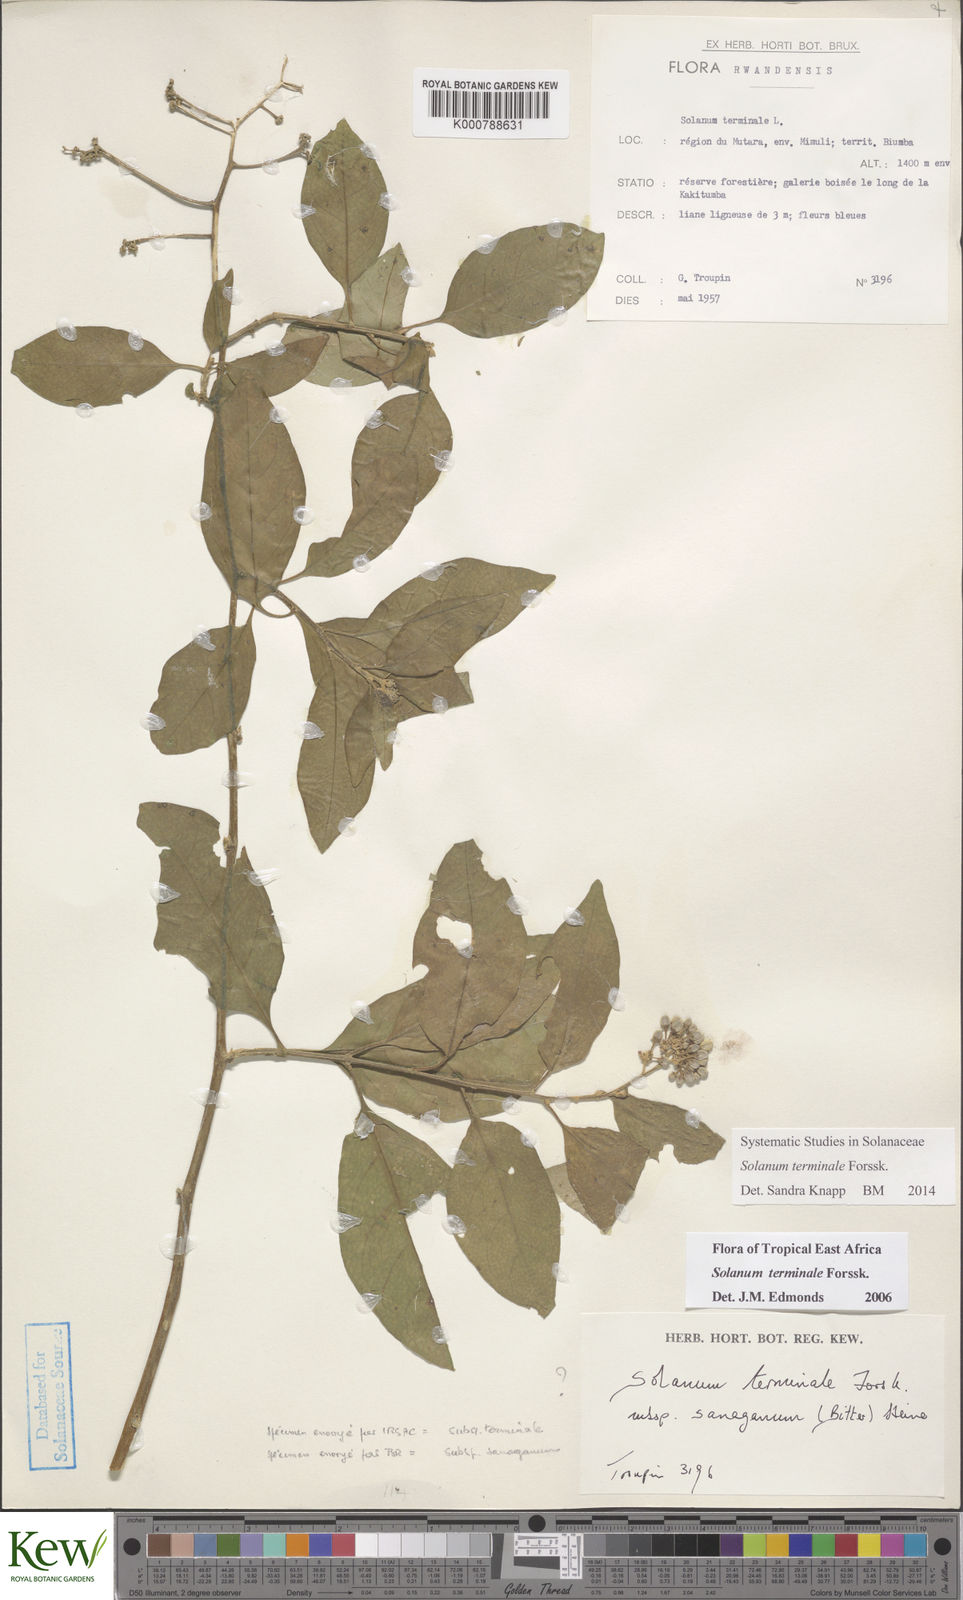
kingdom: Plantae
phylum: Tracheophyta
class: Magnoliopsida
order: Solanales
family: Solanaceae
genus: Solanum
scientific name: Solanum terminale
